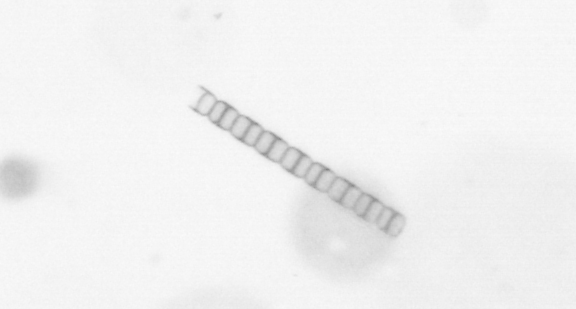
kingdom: Chromista
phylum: Ochrophyta
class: Bacillariophyceae
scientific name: Bacillariophyceae
